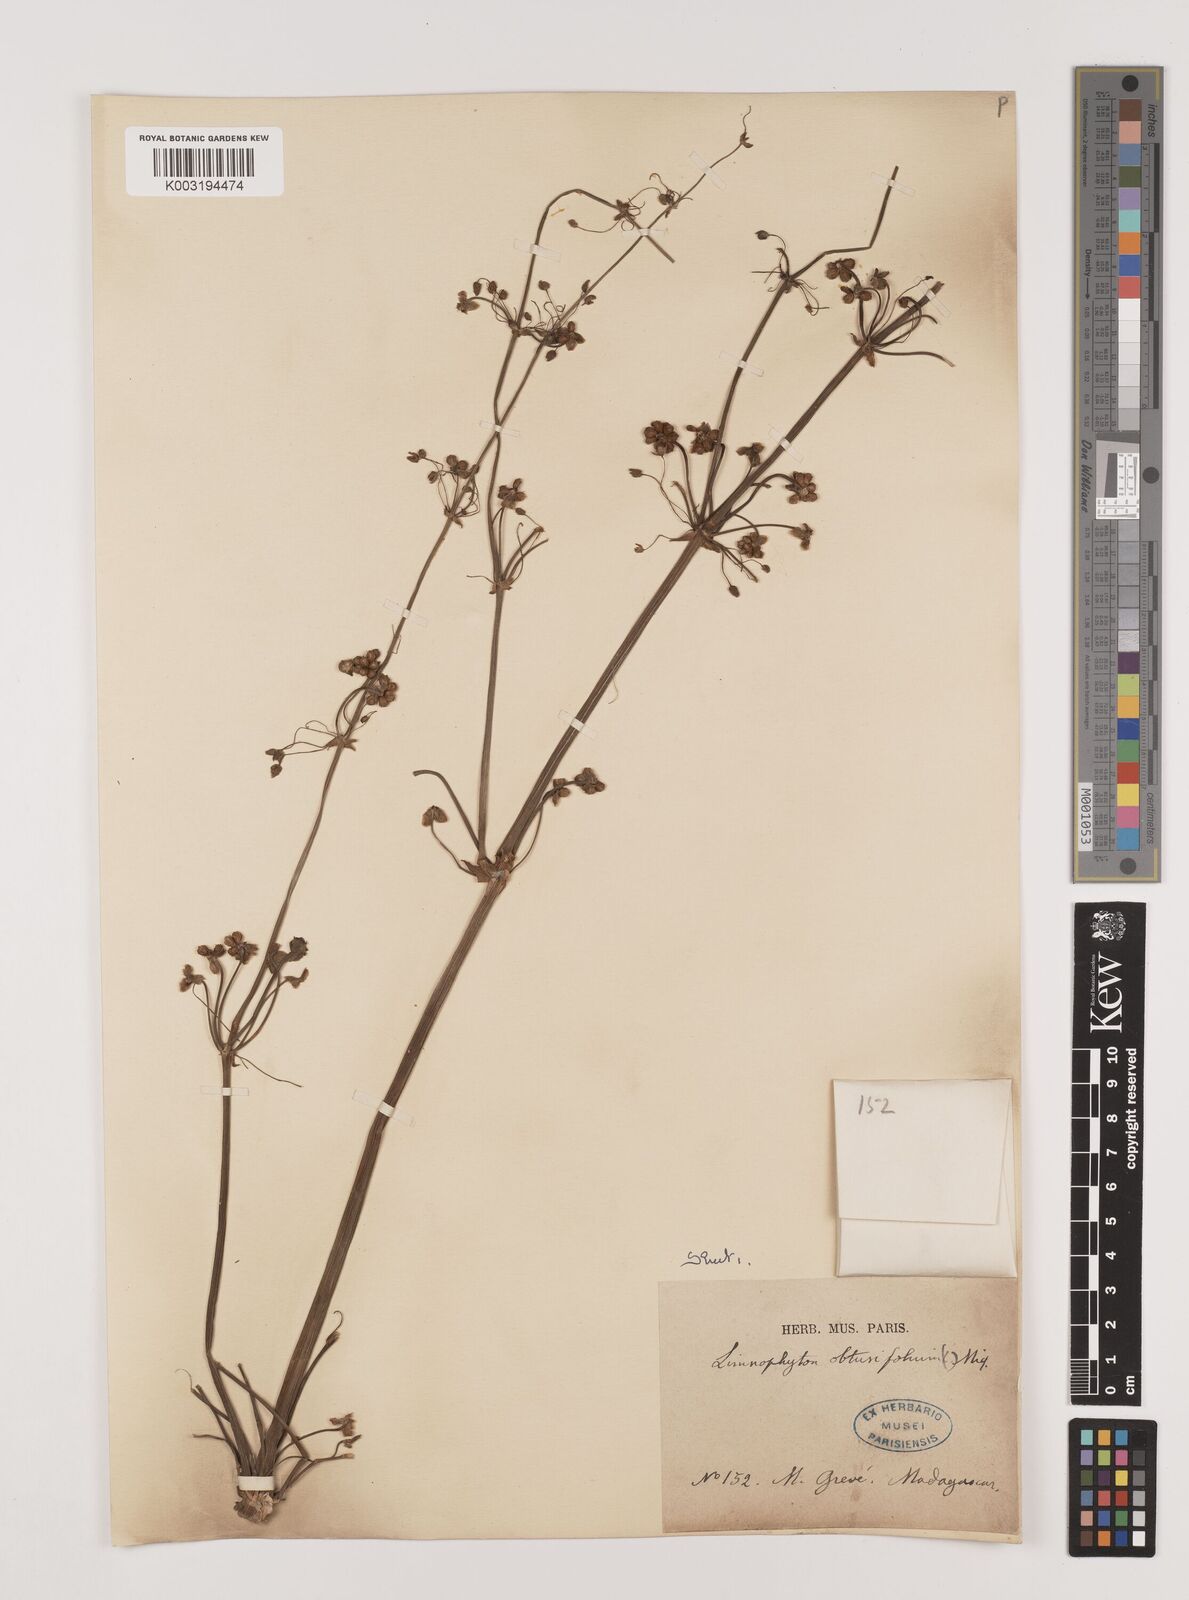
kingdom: Plantae
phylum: Tracheophyta
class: Liliopsida
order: Alismatales
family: Alismataceae
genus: Limnophyton
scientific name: Limnophyton obtusifolium
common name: Arrow head
